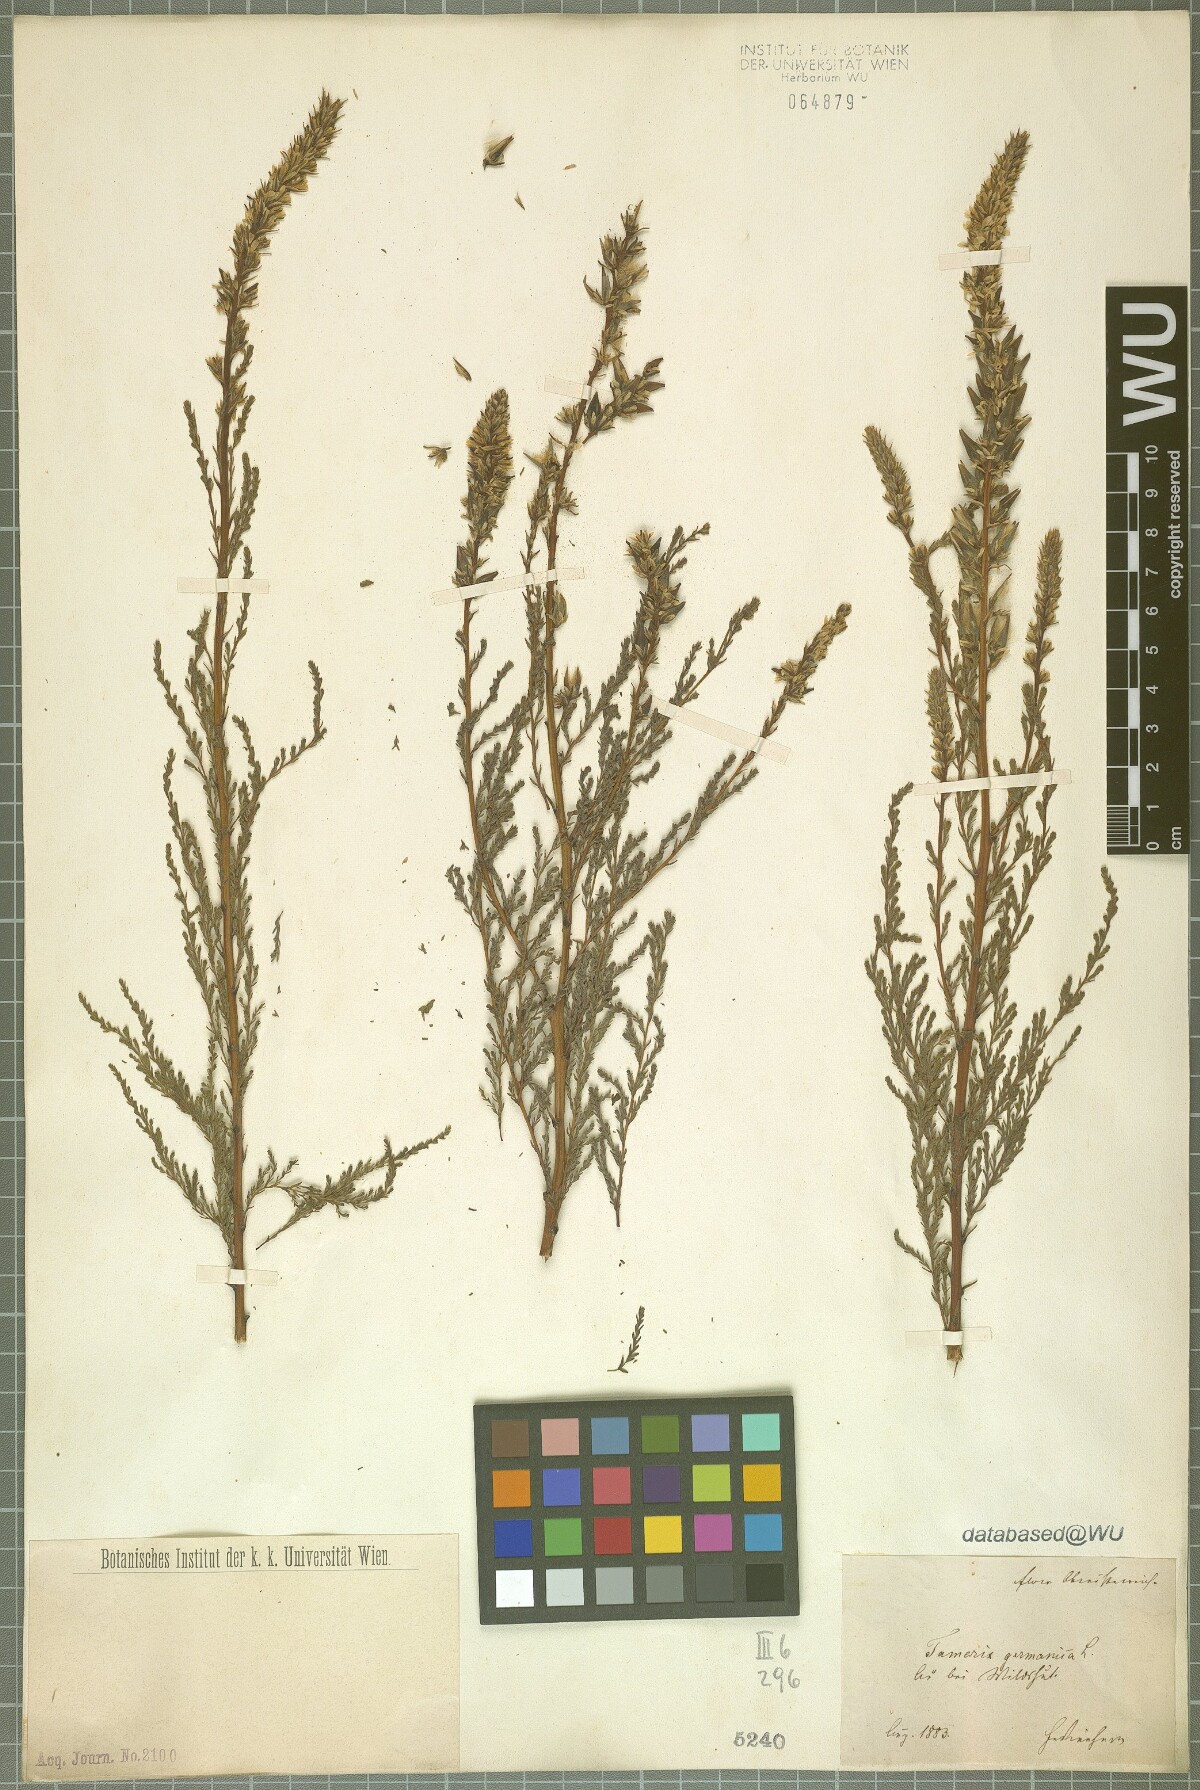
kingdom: Plantae
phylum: Tracheophyta
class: Magnoliopsida
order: Caryophyllales
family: Tamaricaceae
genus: Myricaria
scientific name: Myricaria germanica
